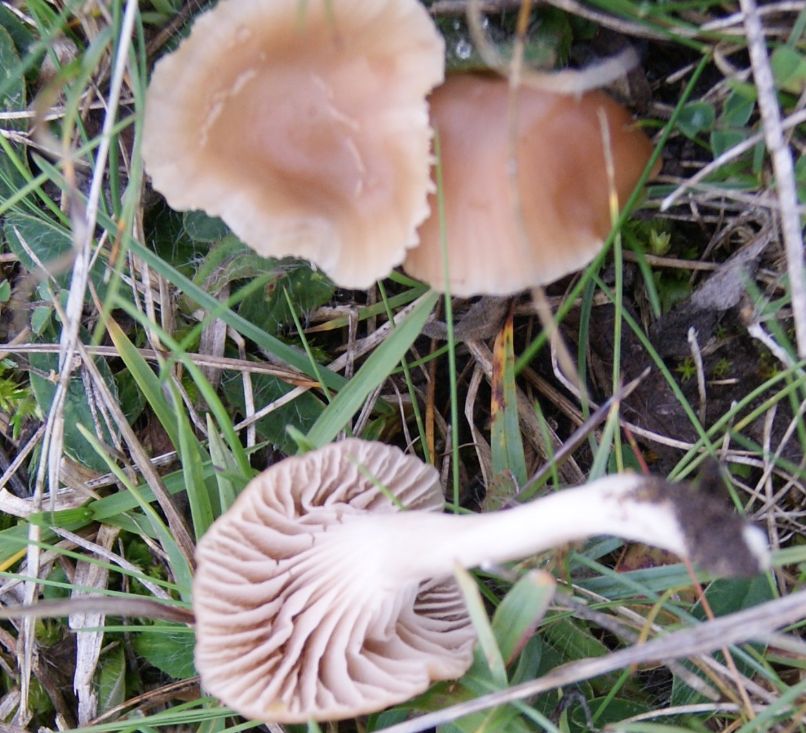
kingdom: Fungi
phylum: Basidiomycota
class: Agaricomycetes
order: Agaricales
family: Hygrophoraceae
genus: Cuphophyllus
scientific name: Cuphophyllus colemannianus
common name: rødbrun vokshat
